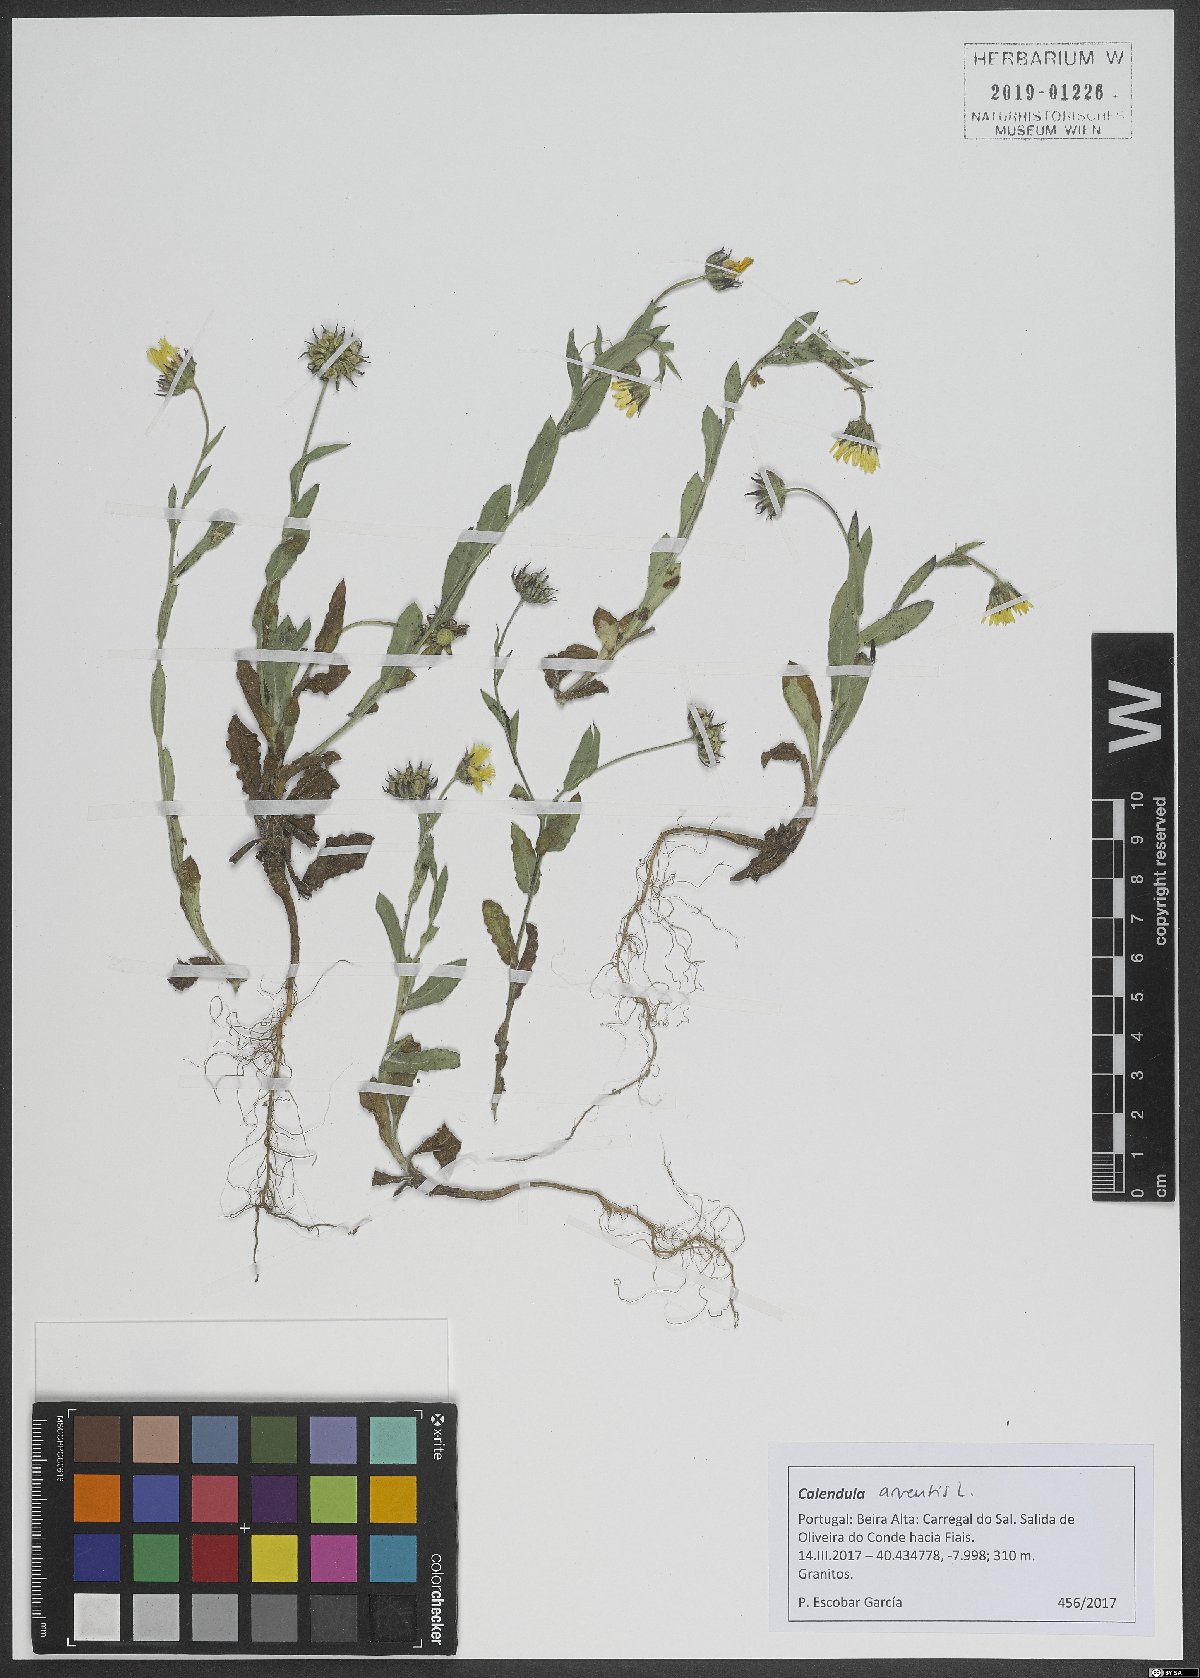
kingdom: Plantae
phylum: Tracheophyta
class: Magnoliopsida
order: Asterales
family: Asteraceae
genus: Calendula
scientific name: Calendula arvensis
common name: Field marigold
